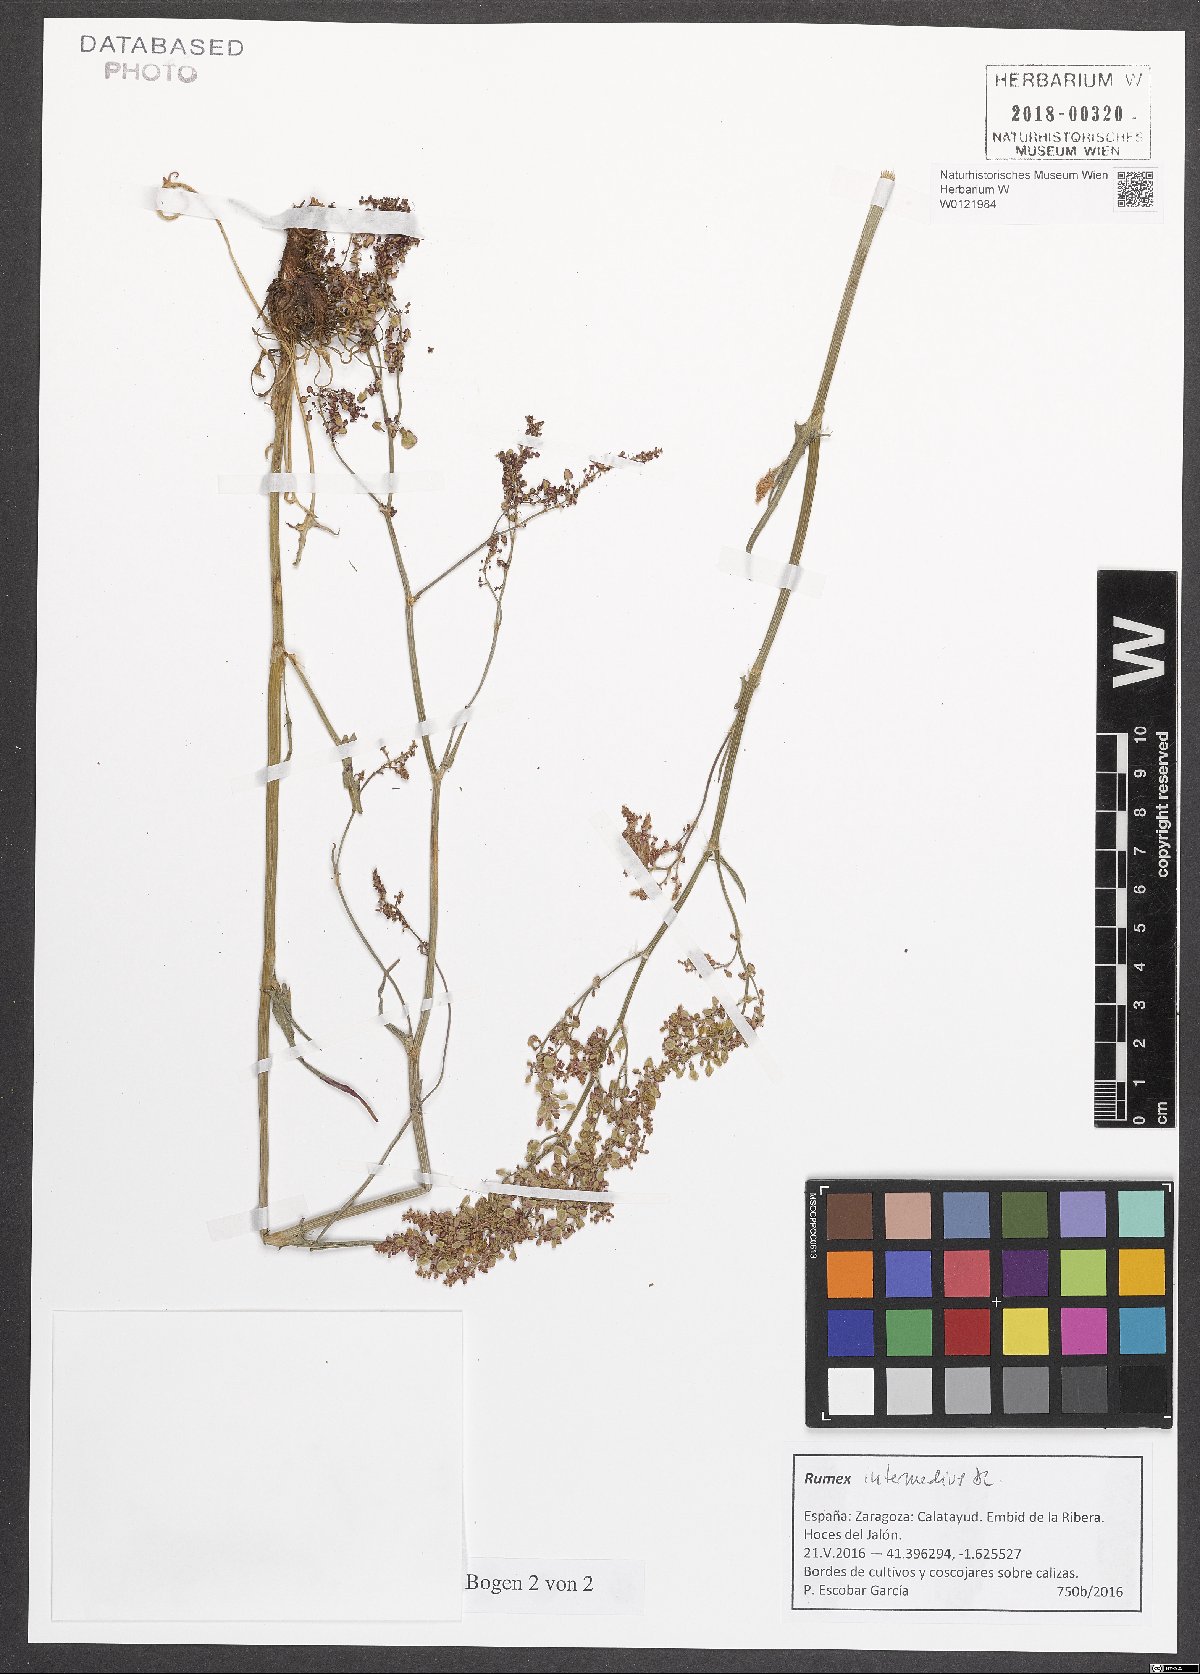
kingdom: Plantae
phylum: Tracheophyta
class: Magnoliopsida
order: Caryophyllales
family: Polygonaceae
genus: Rumex
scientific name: Rumex intermedius
